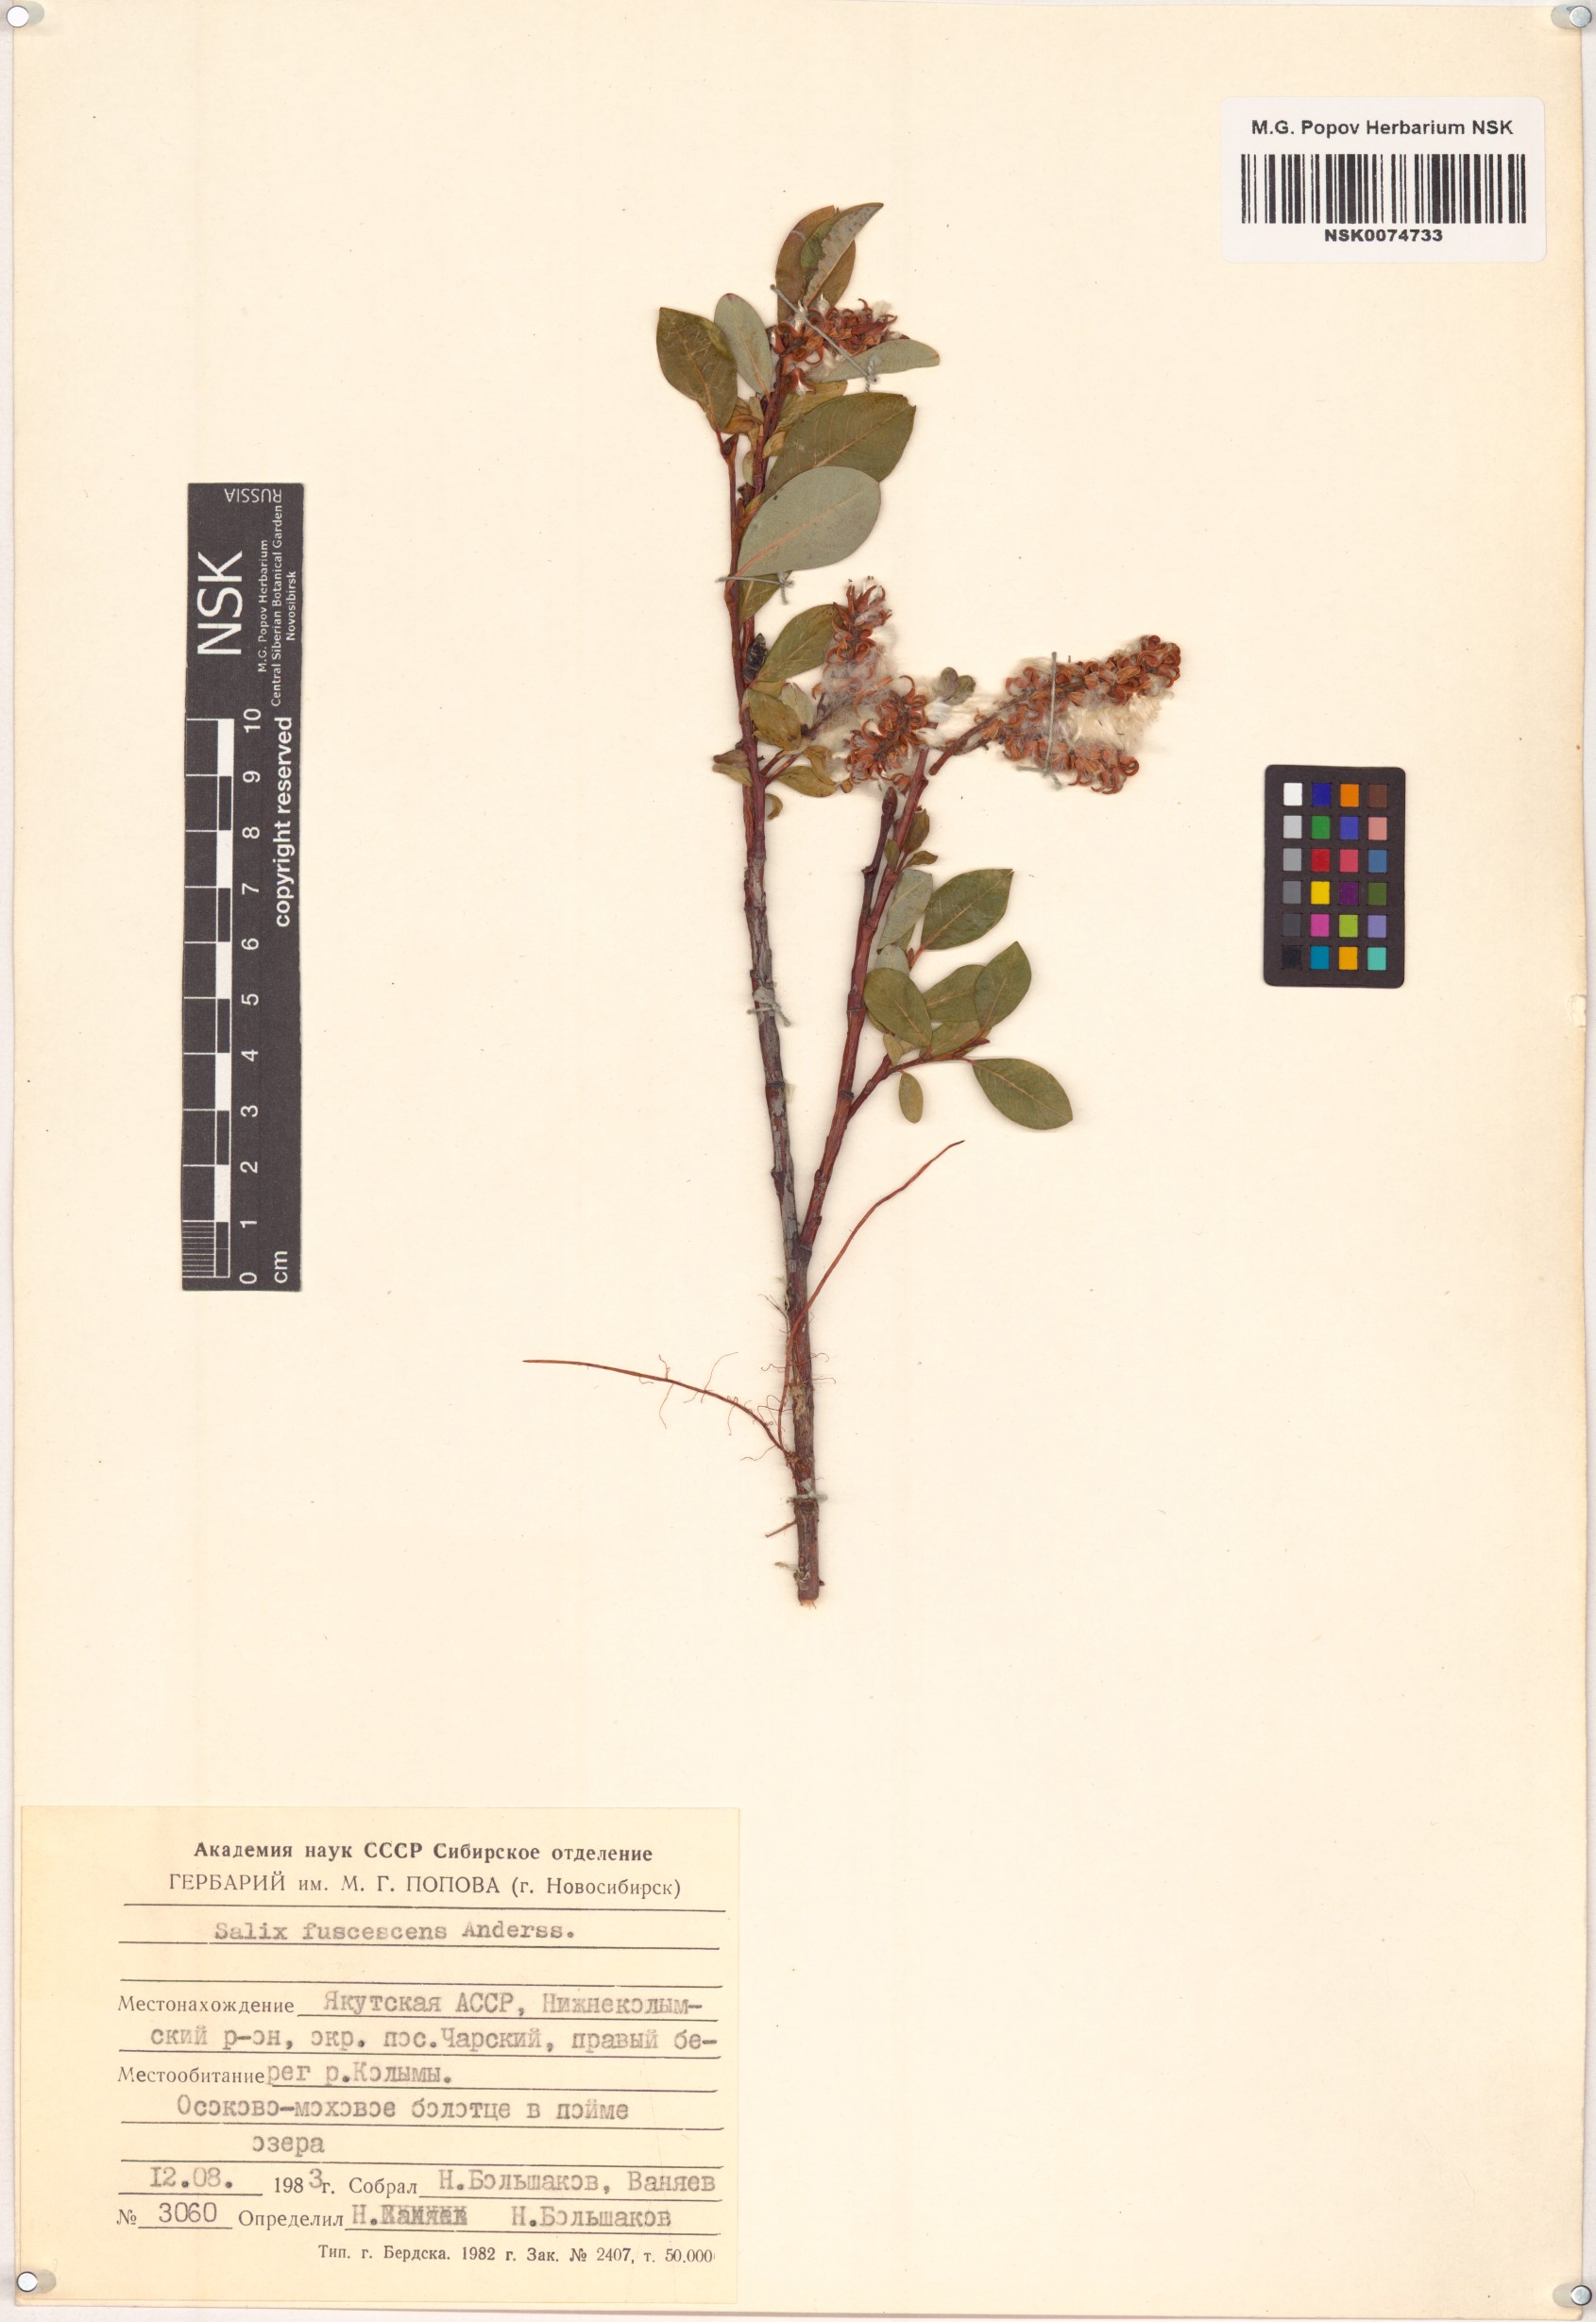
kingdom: Plantae
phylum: Tracheophyta
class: Magnoliopsida
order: Malpighiales
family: Salicaceae
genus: Salix
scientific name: Salix fuscescens
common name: Brownish willow
